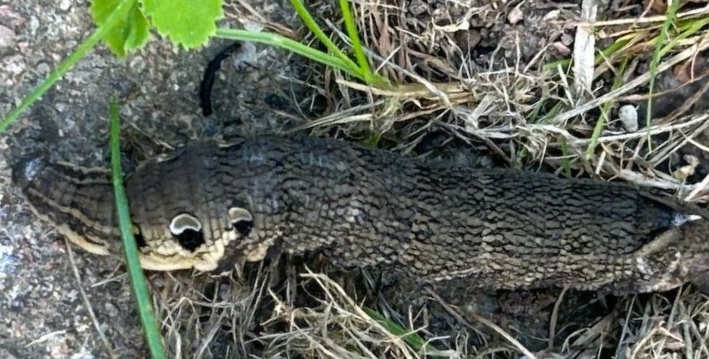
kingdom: Animalia
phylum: Arthropoda
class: Insecta
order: Lepidoptera
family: Sphingidae
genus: Deilephila
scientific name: Deilephila elpenor
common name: Dueurtsværmer
